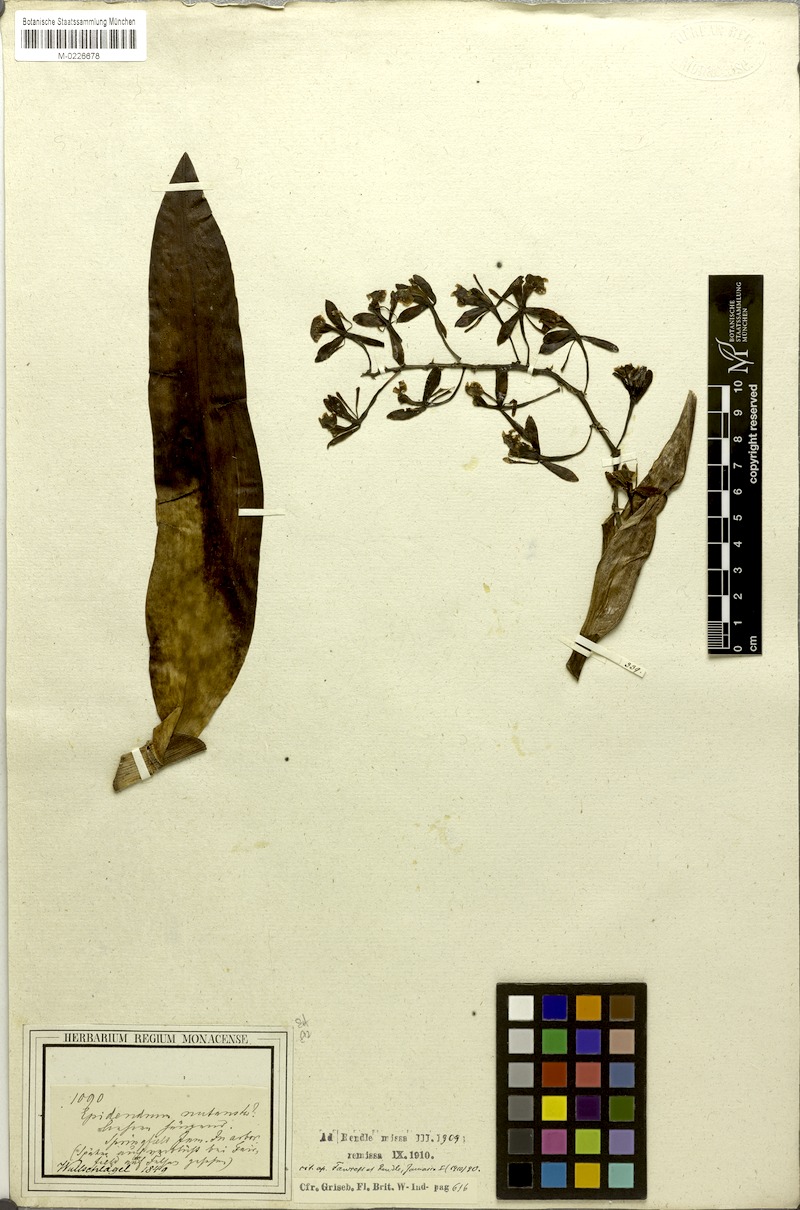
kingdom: Plantae
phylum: Tracheophyta
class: Liliopsida
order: Asparagales
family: Orchidaceae
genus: Epidendrum
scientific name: Epidendrum nutans
